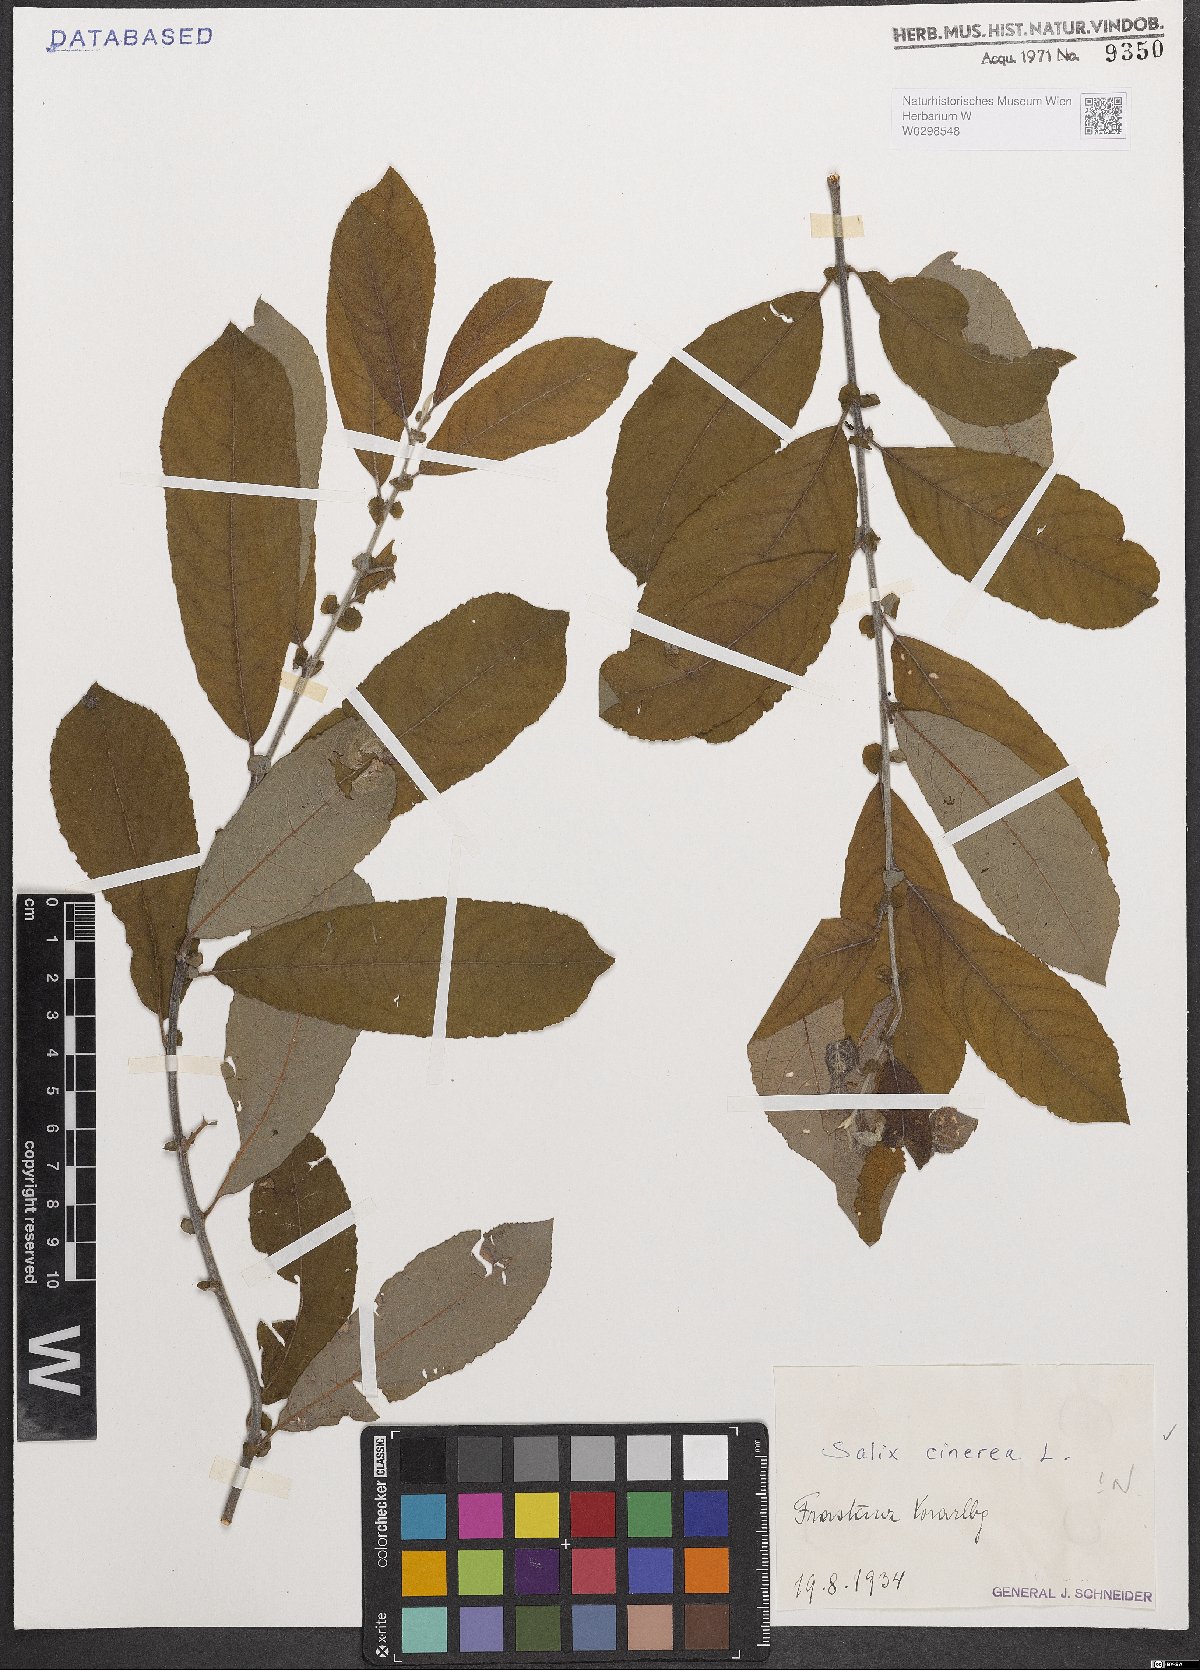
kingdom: Plantae
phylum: Tracheophyta
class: Magnoliopsida
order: Malpighiales
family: Salicaceae
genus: Salix
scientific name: Salix cinerea
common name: Common sallow
